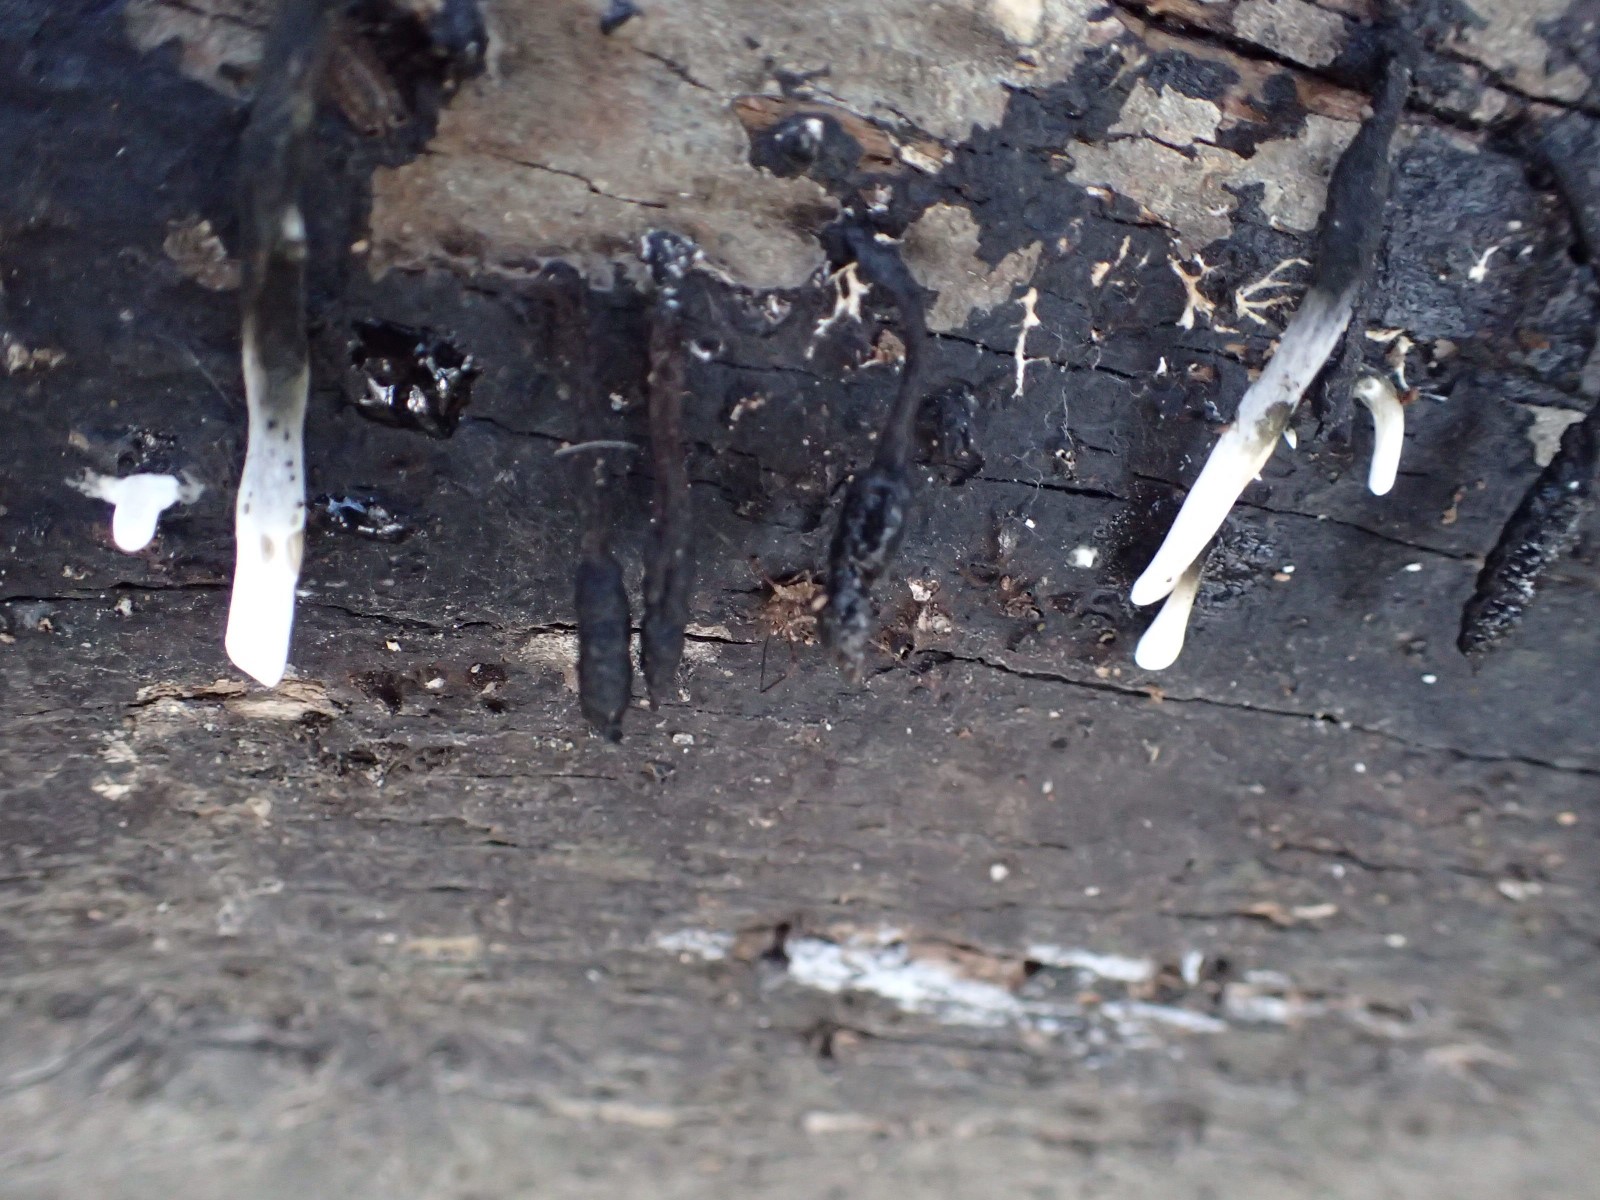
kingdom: Fungi
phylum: Ascomycota
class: Sordariomycetes
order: Xylariales
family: Xylariaceae
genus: Xylaria
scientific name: Xylaria hypoxylon
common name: grenet stødsvamp
